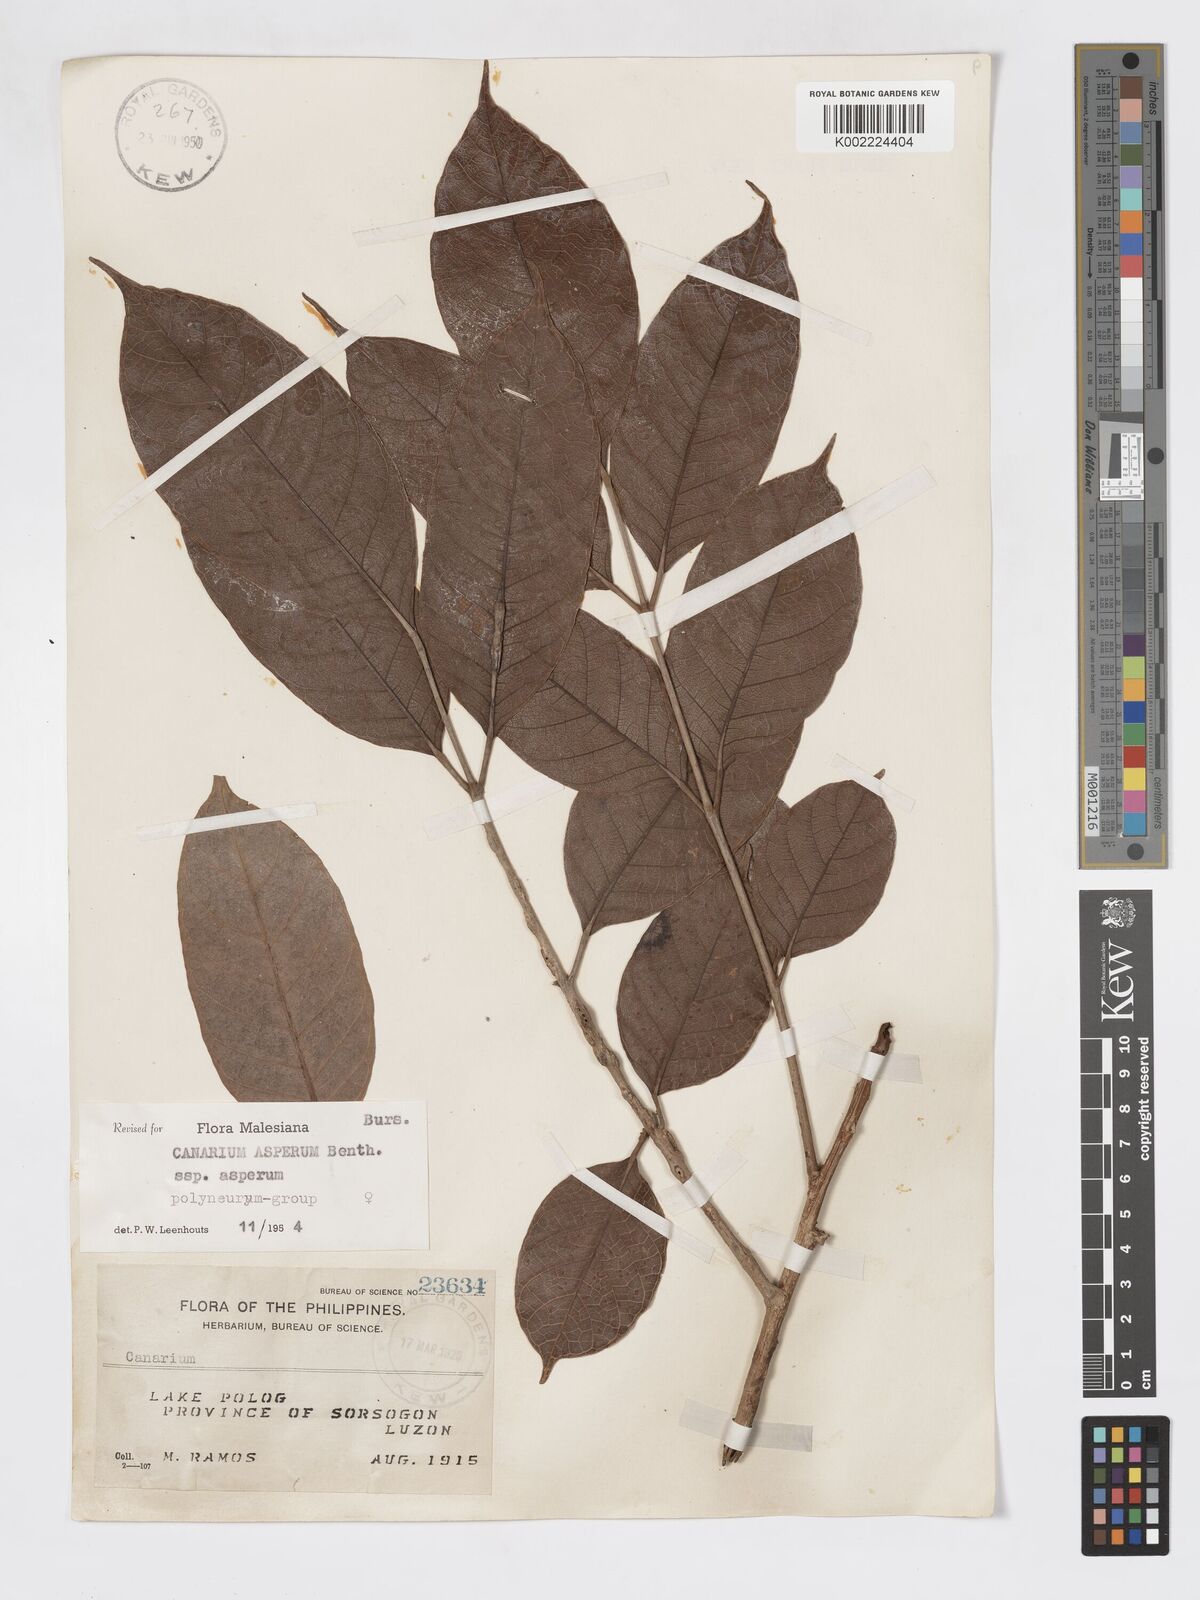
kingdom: Plantae
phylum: Tracheophyta
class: Magnoliopsida
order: Sapindales
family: Burseraceae
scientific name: Burseraceae
